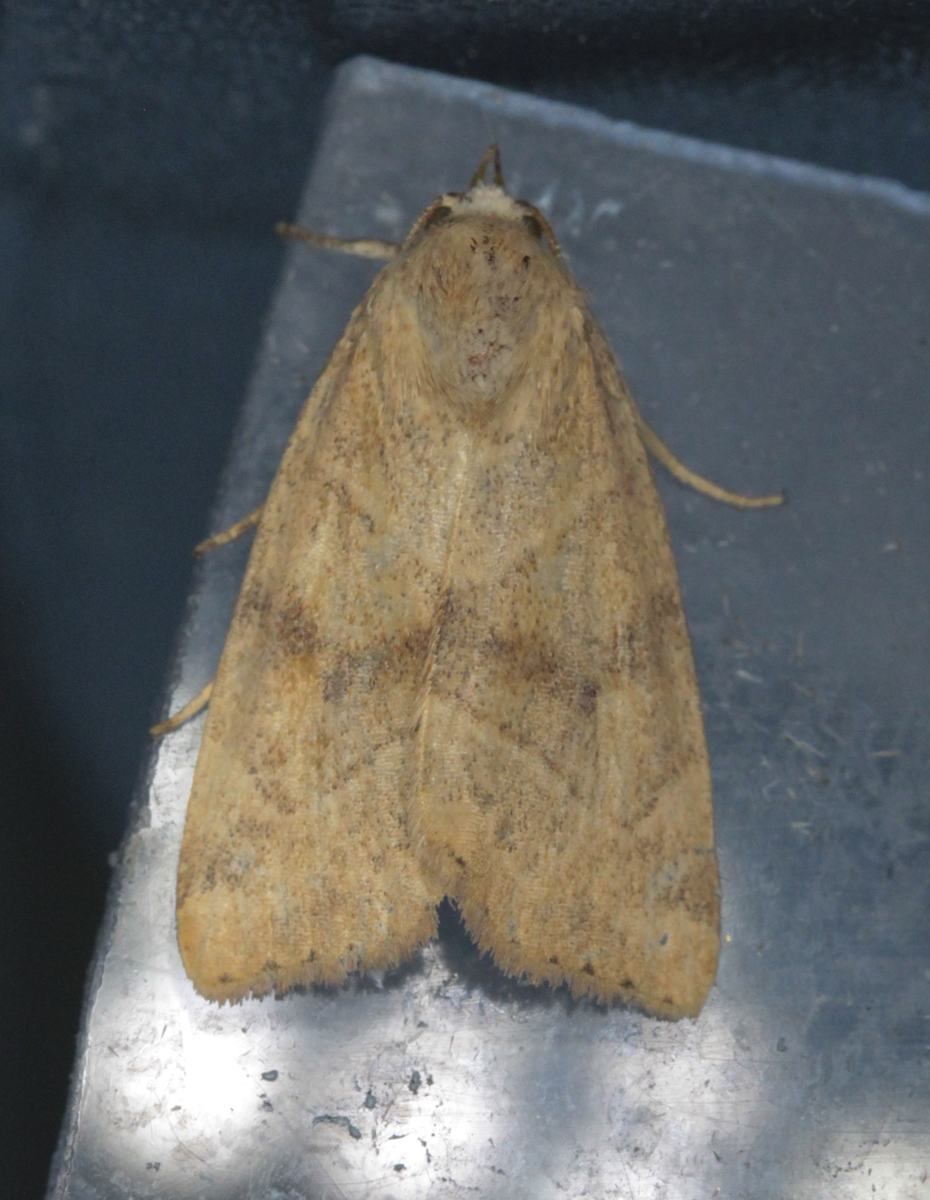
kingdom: Animalia
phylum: Arthropoda
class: Insecta
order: Lepidoptera
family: Noctuidae
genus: Cosmia
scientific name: Cosmia trapezina
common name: Dun-bar
